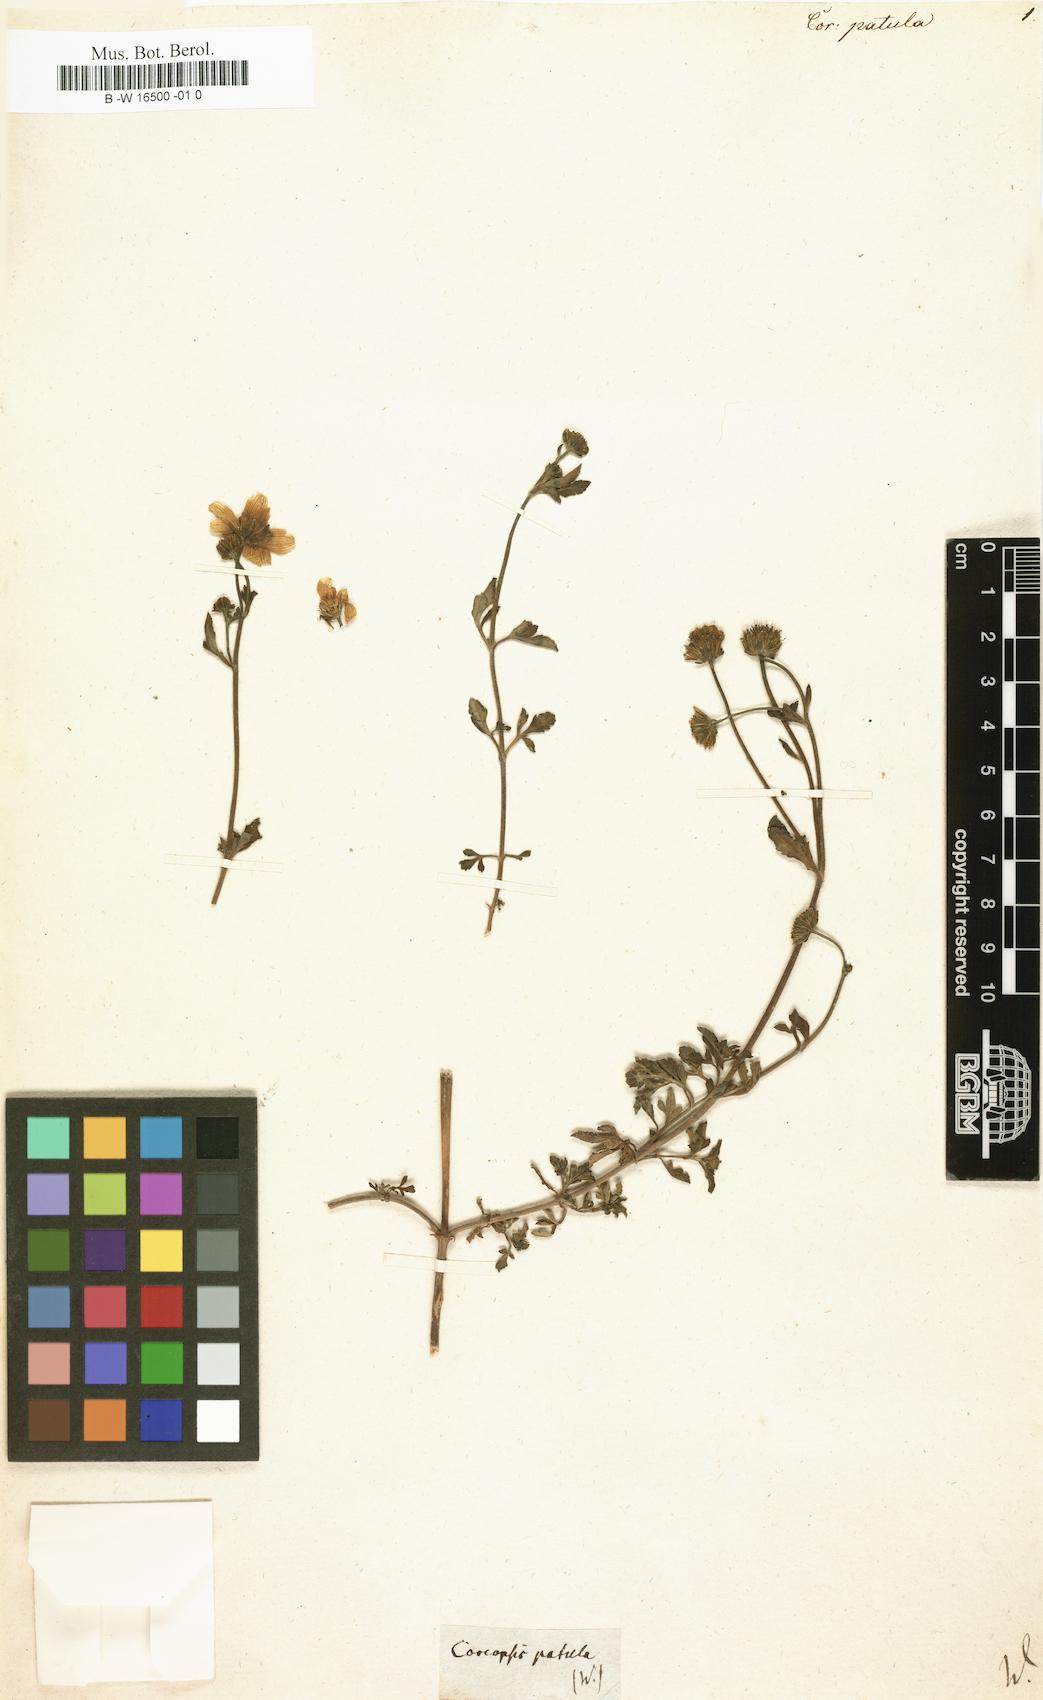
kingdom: Plantae
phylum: Tracheophyta
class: Magnoliopsida
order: Asterales
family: Asteraceae
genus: Bidens
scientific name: Bidens andicola
